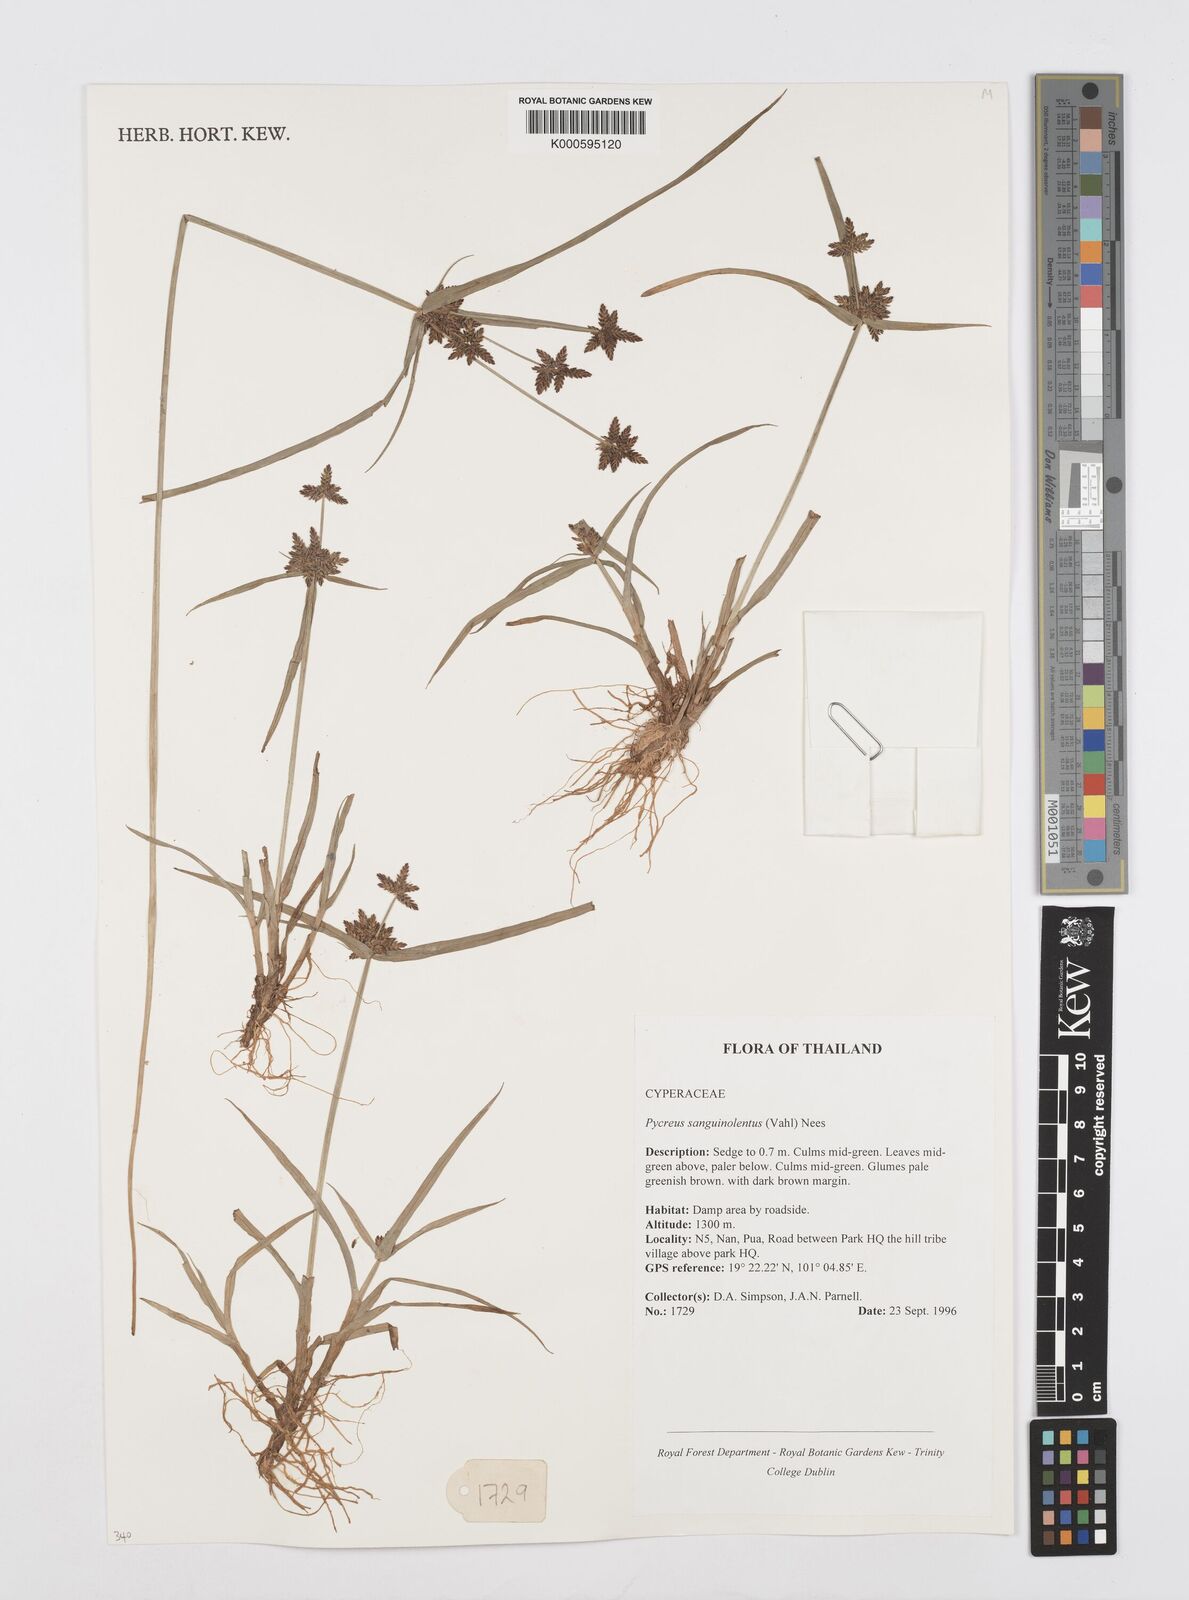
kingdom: Plantae
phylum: Tracheophyta
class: Liliopsida
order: Poales
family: Cyperaceae
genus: Cyperus
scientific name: Cyperus sanguinolentus
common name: Purpleglume flatsedge
